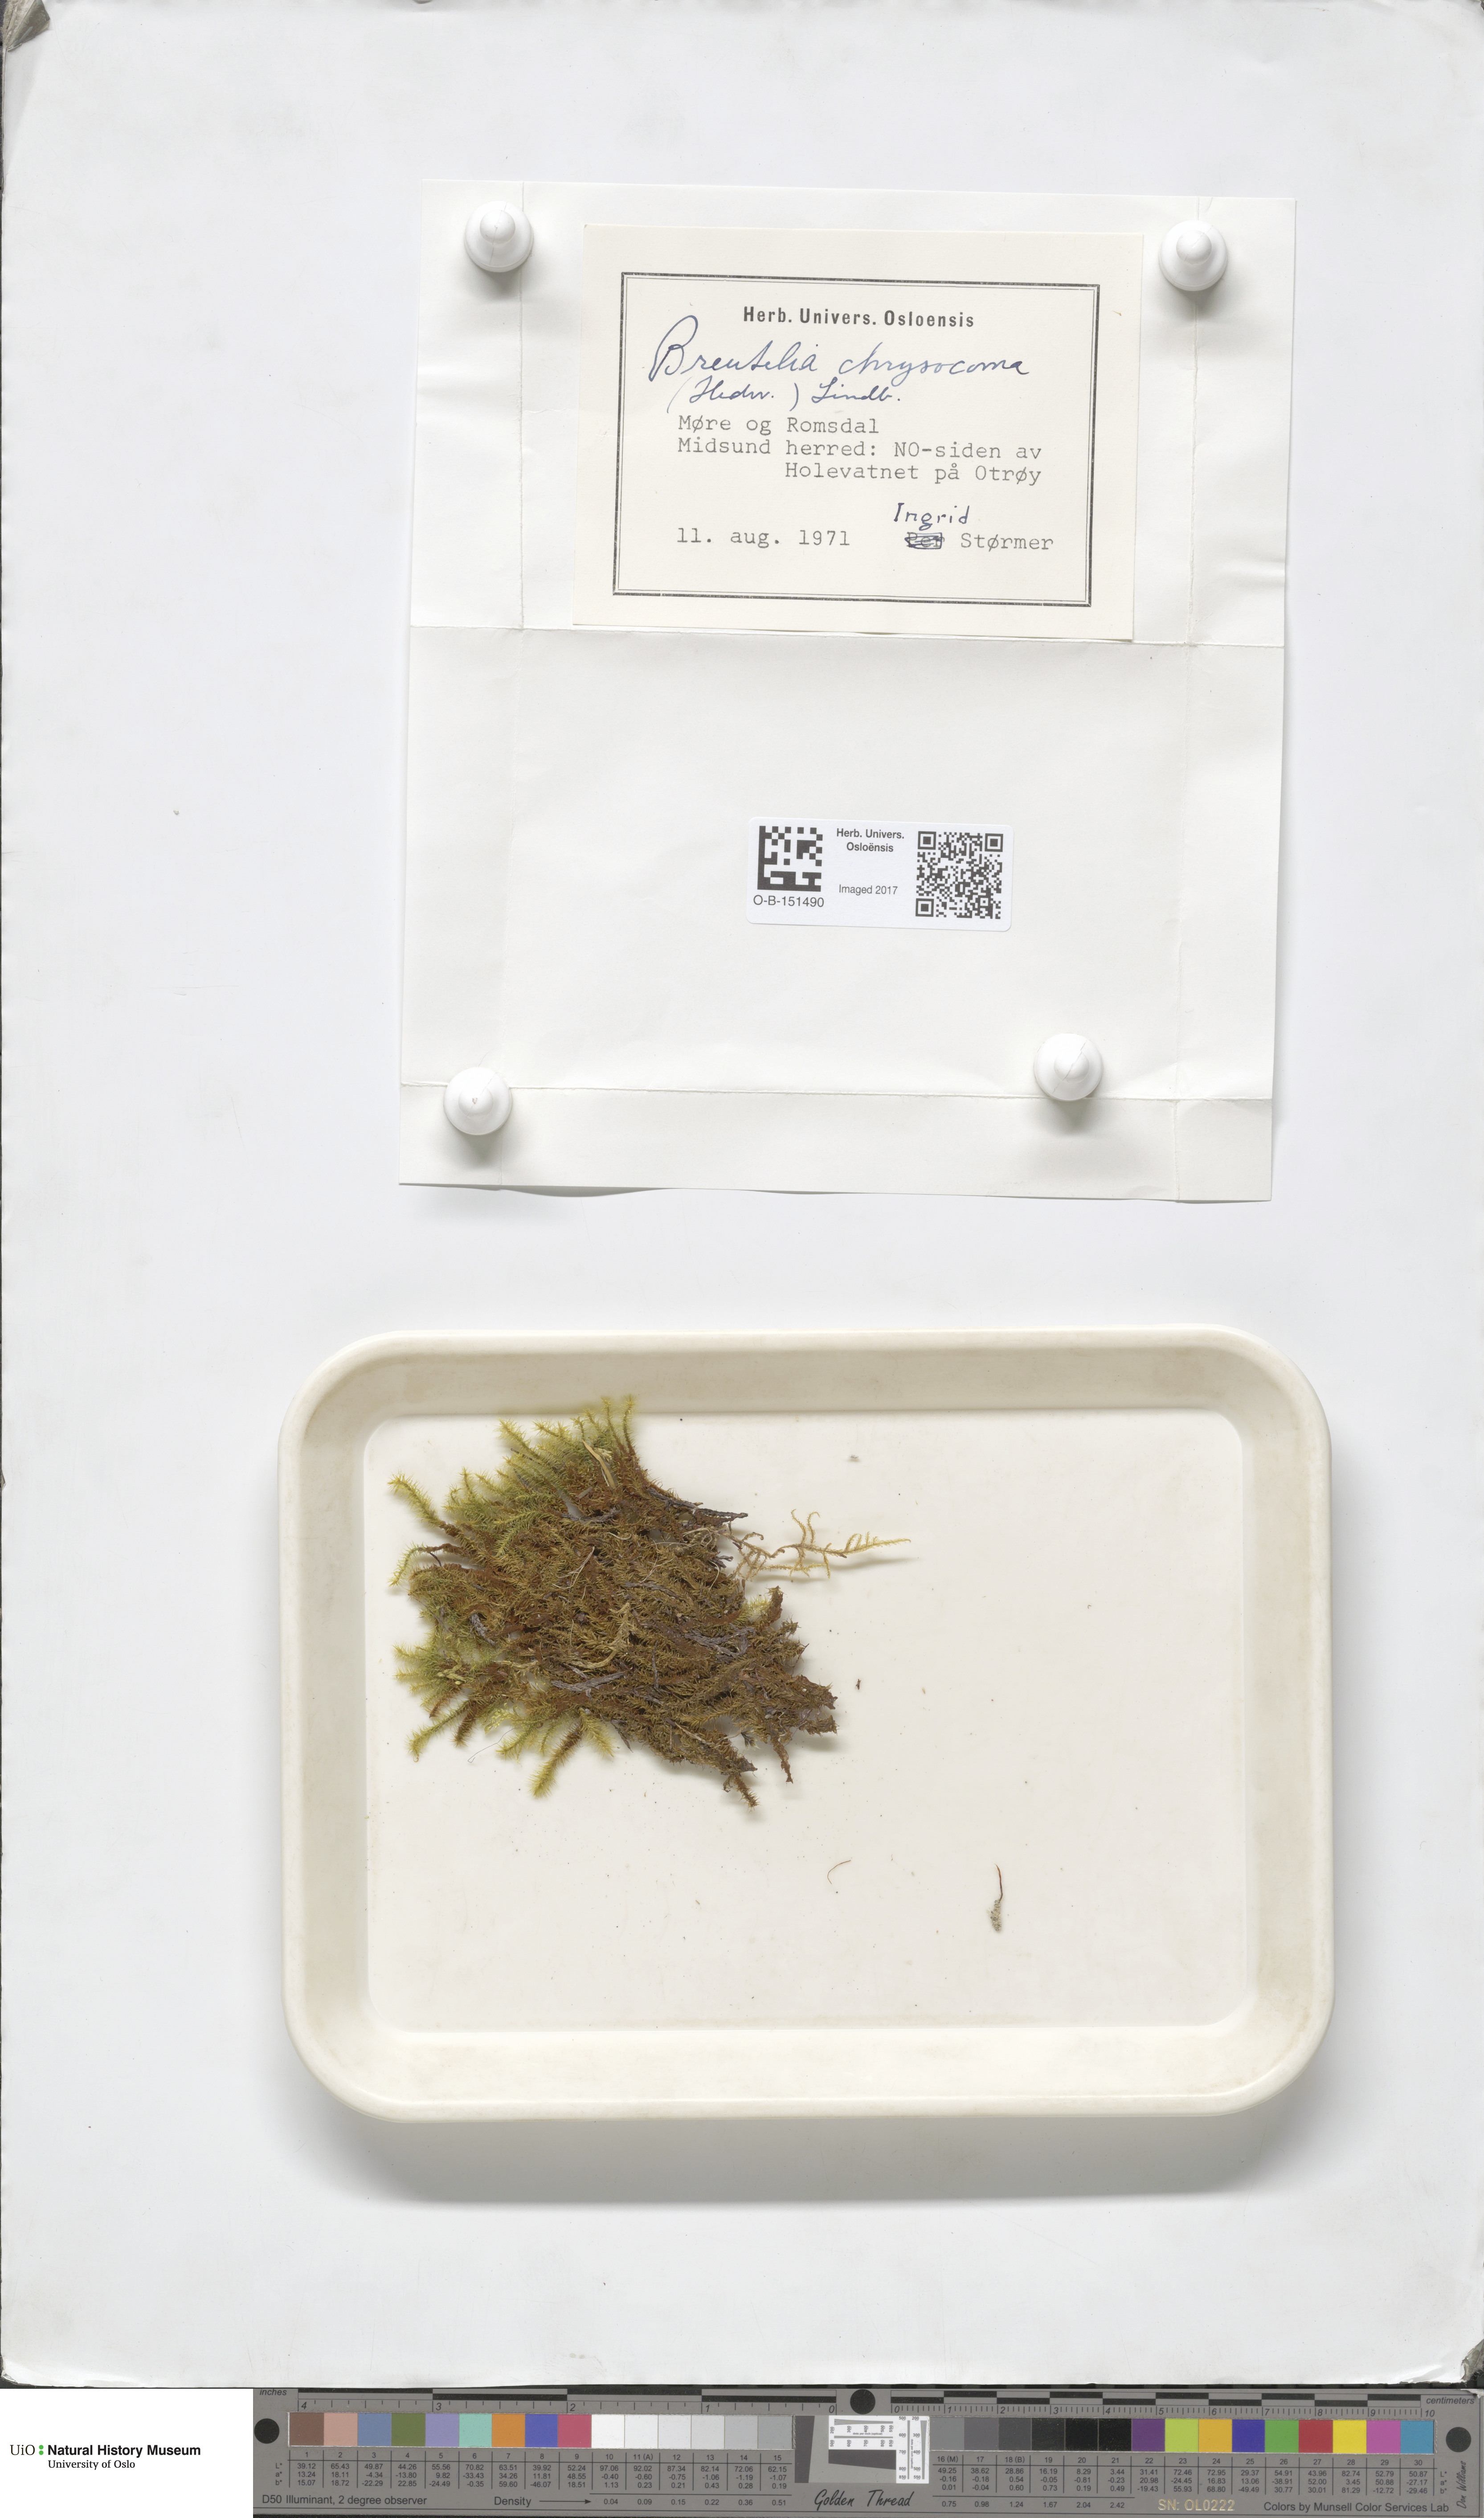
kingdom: Plantae
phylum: Bryophyta
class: Bryopsida
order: Bartramiales
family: Bartramiaceae
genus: Breutelia
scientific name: Breutelia chrysocoma
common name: Bottle-brush moss
